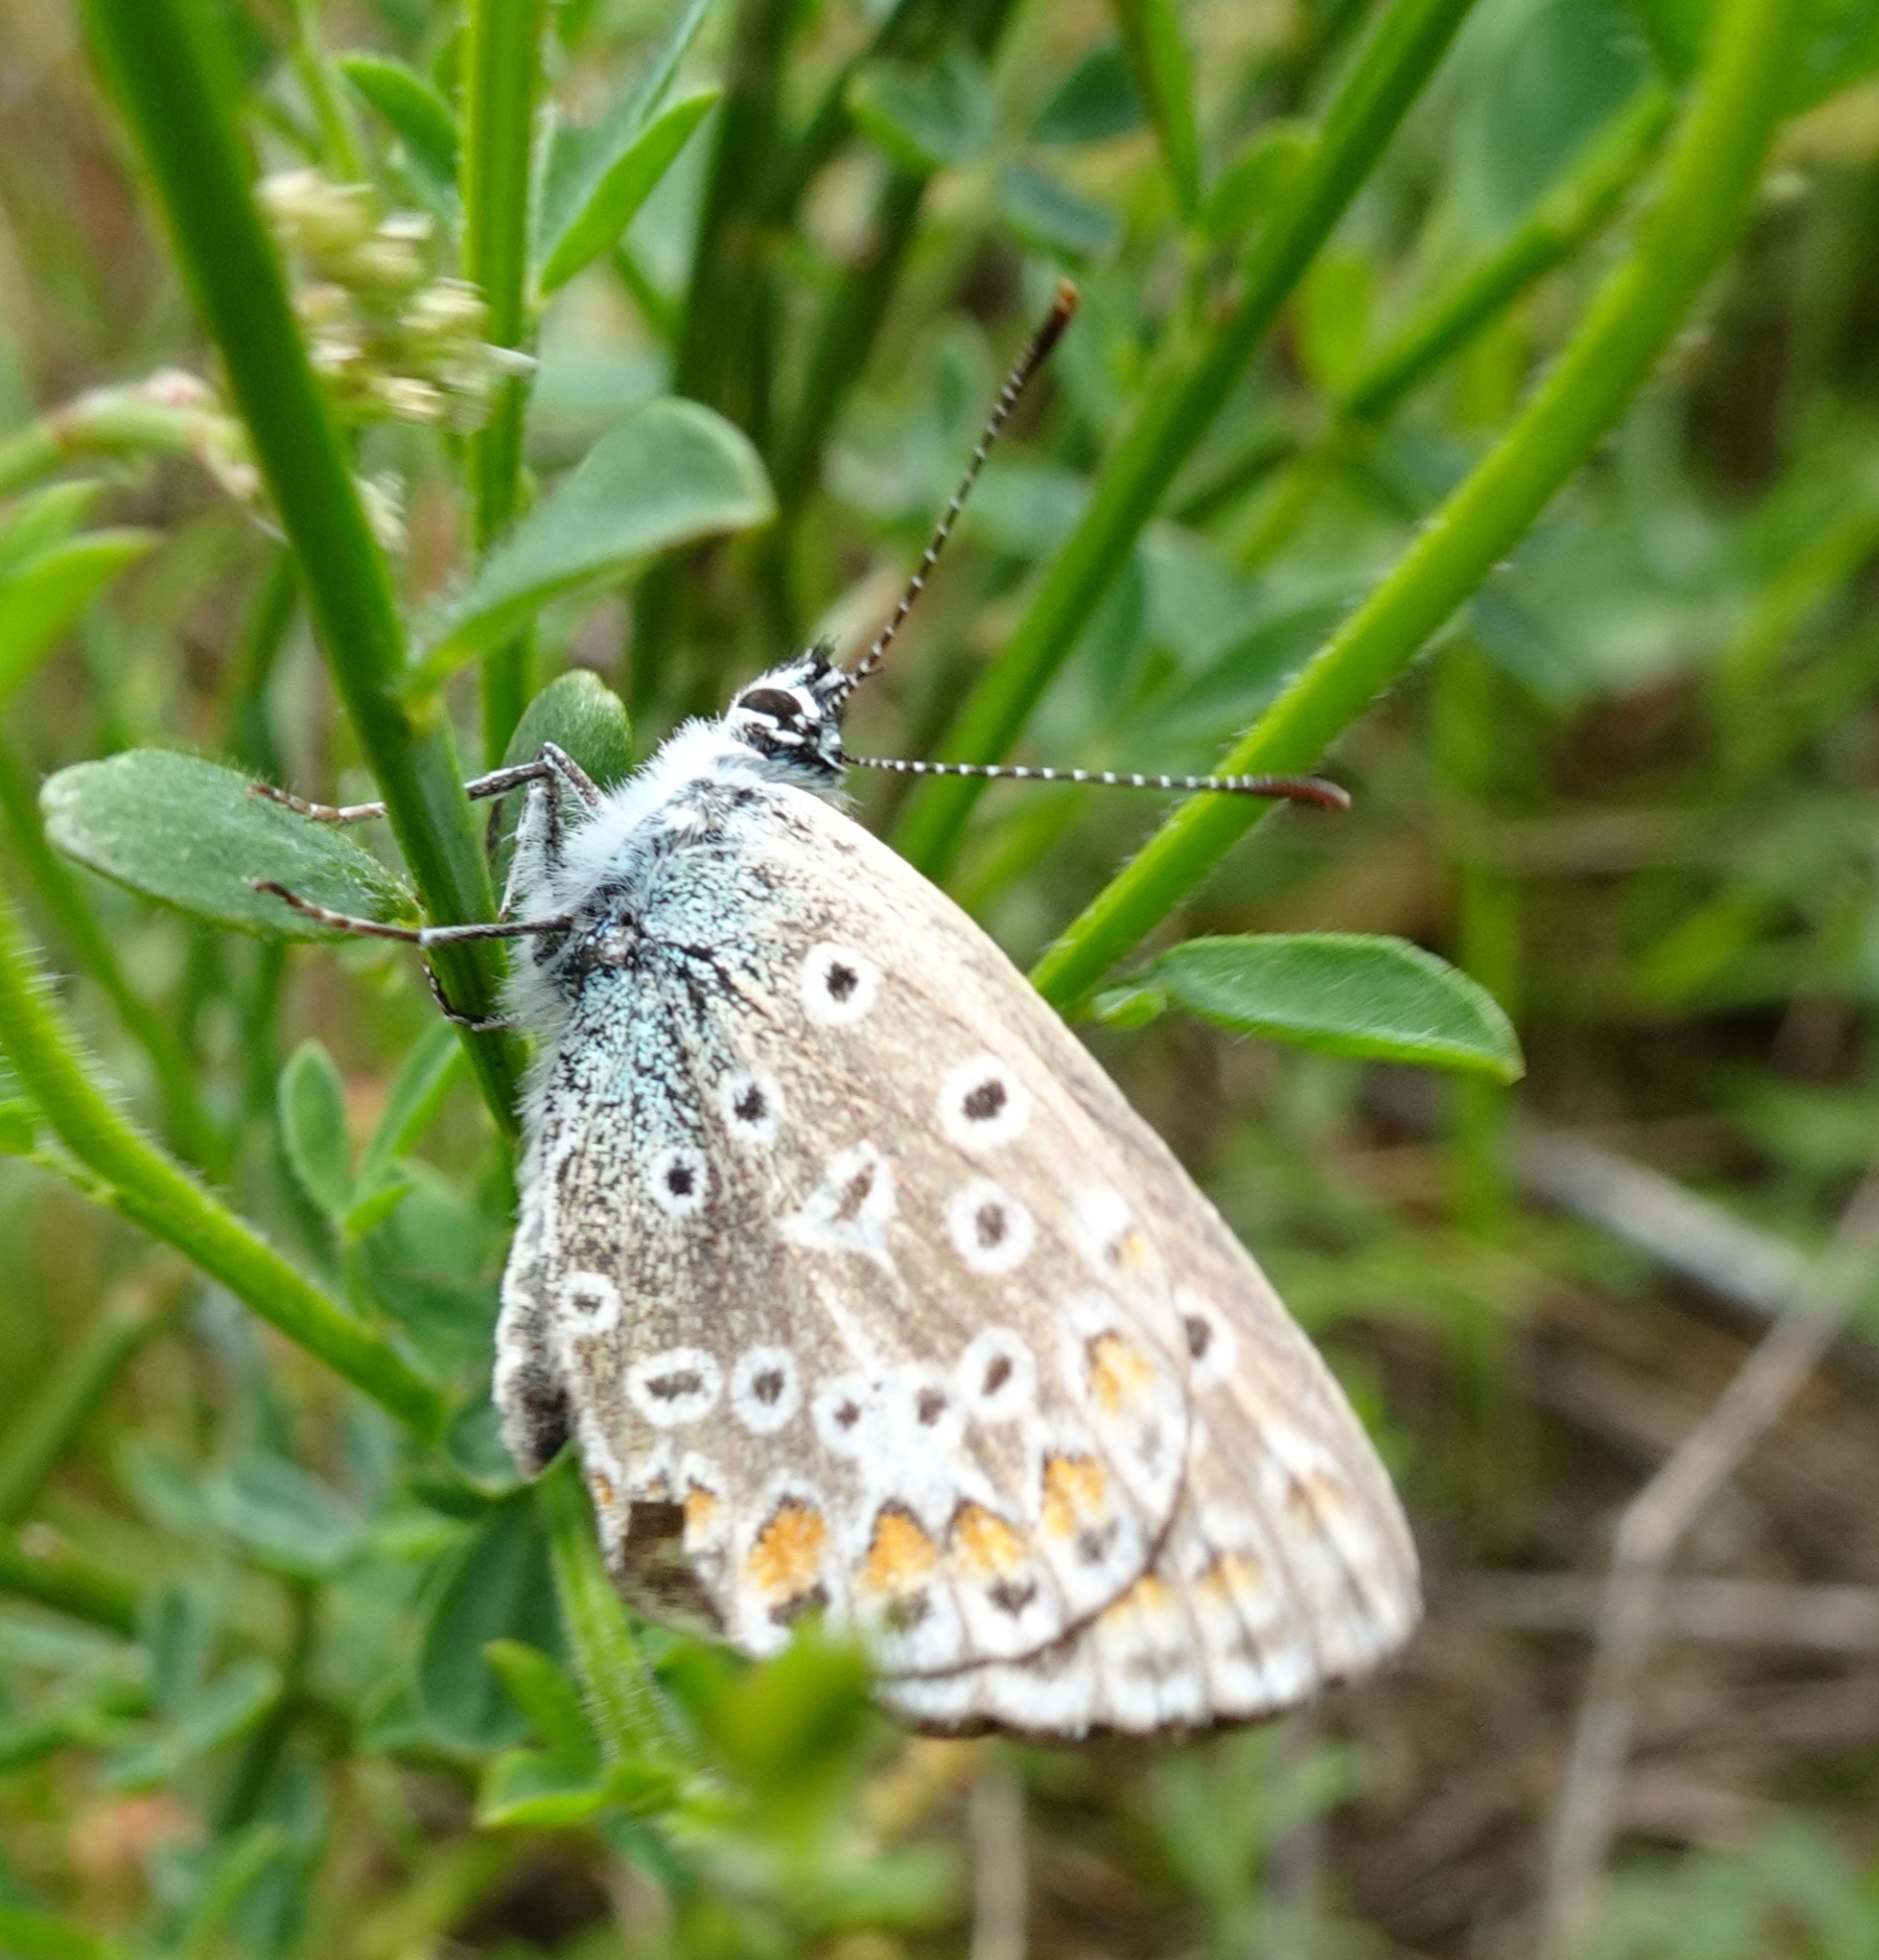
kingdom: Animalia
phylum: Arthropoda
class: Insecta
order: Lepidoptera
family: Lycaenidae
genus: Polyommatus
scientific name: Polyommatus icarus
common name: Almindelig blåfugl
